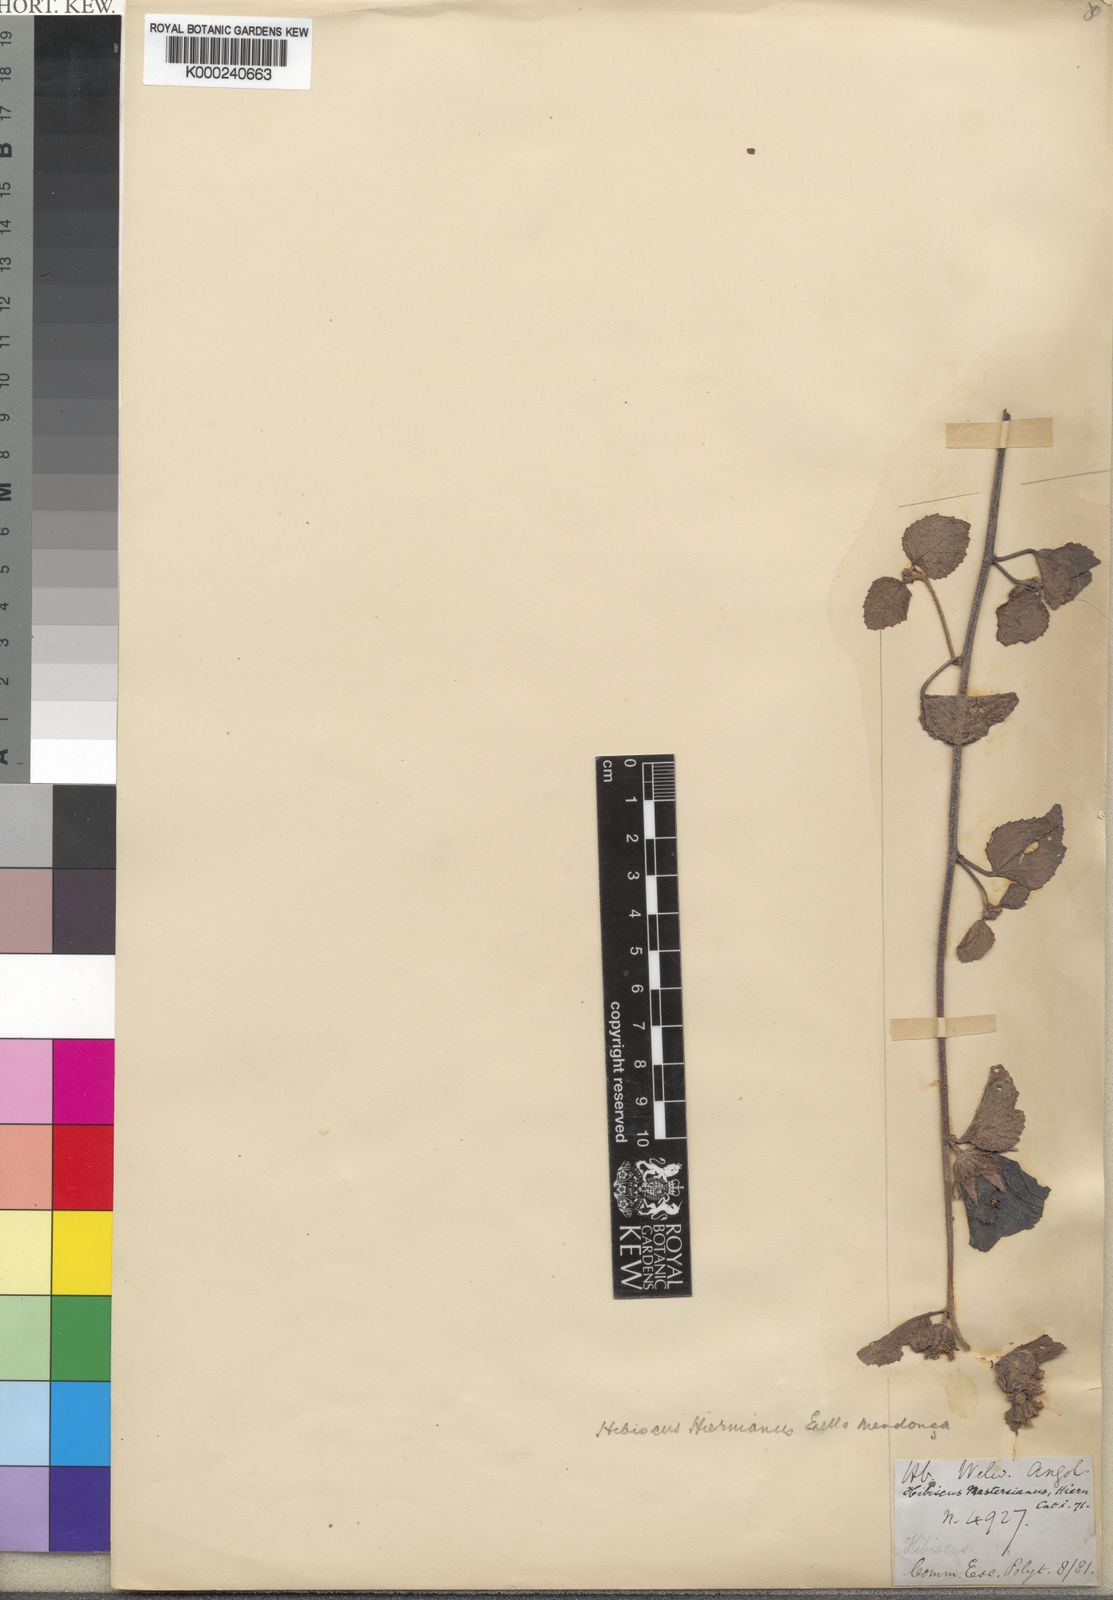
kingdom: Plantae
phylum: Tracheophyta
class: Magnoliopsida
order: Malvales
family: Malvaceae
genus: Hibiscus
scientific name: Hibiscus
